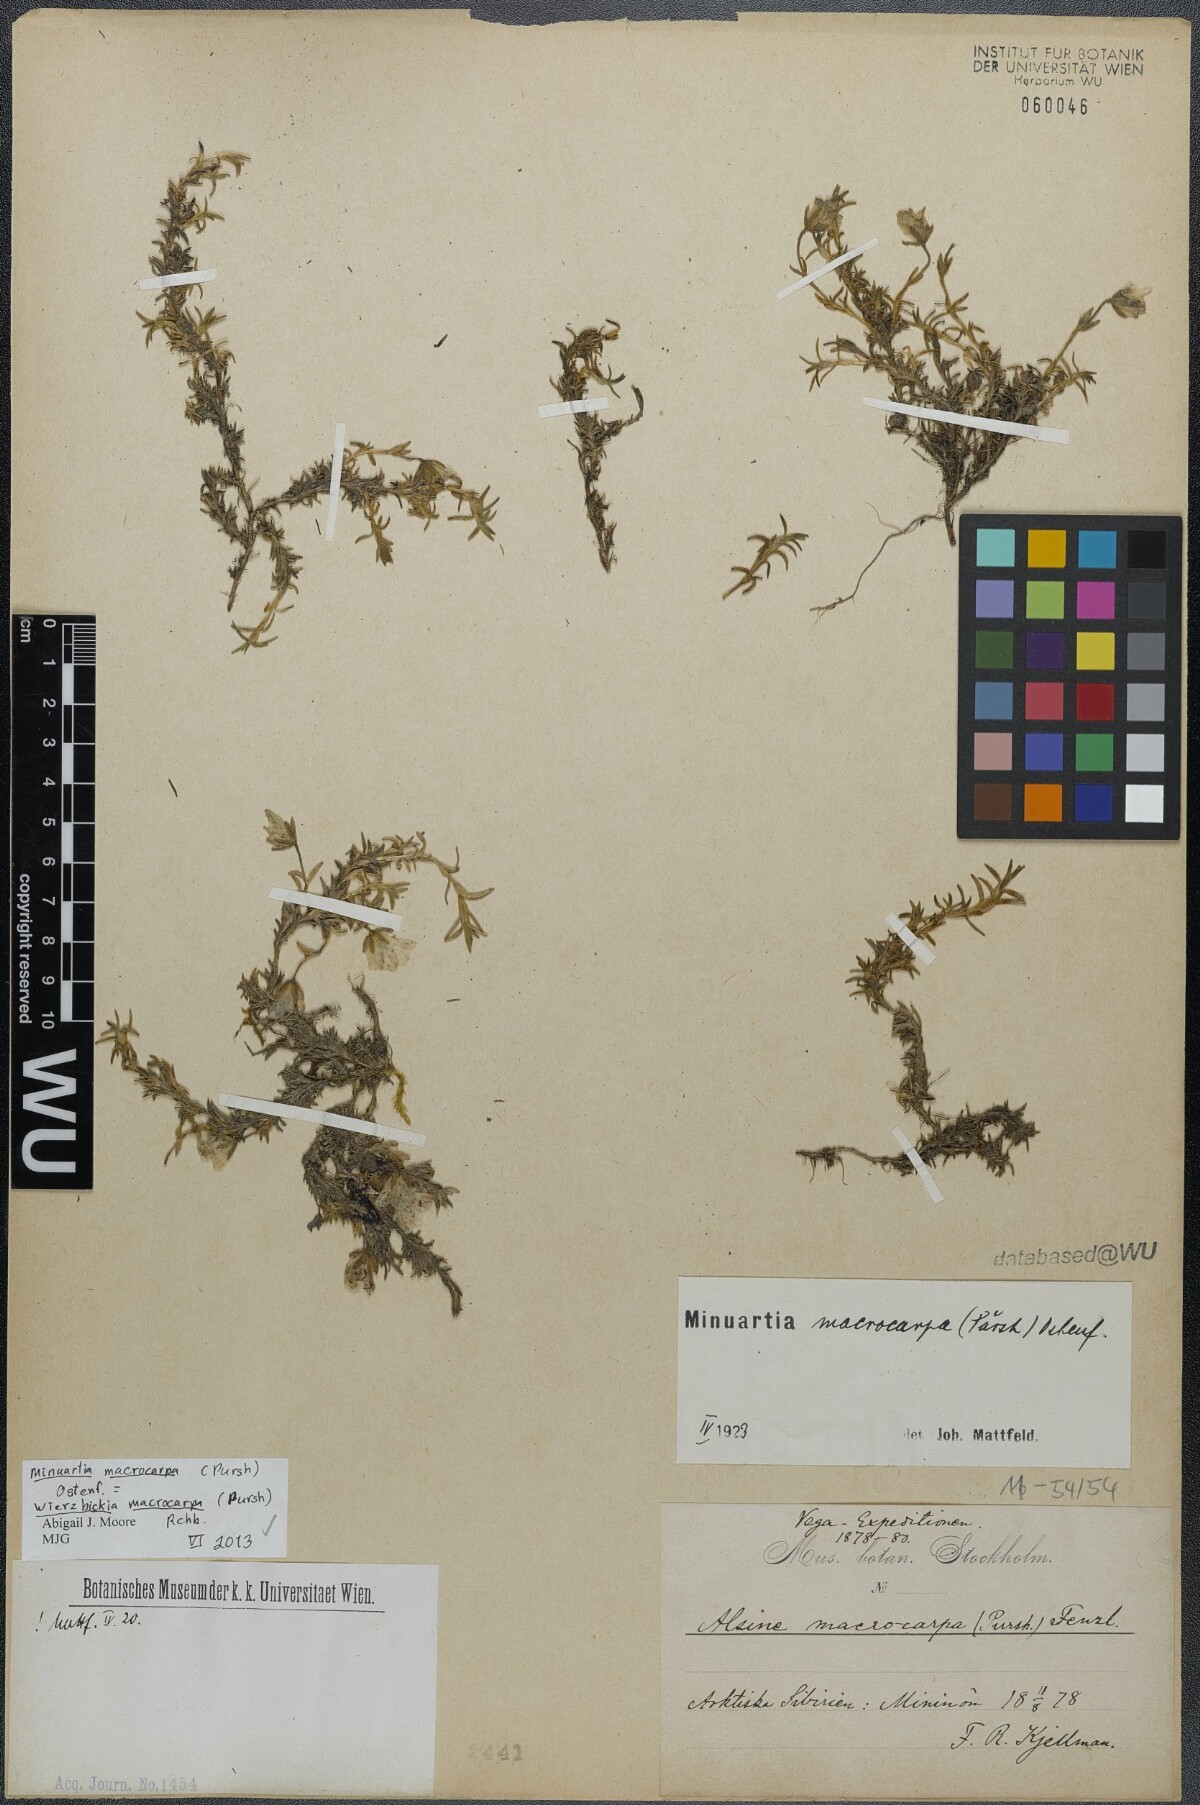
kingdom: Plantae
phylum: Tracheophyta
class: Magnoliopsida
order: Caryophyllales
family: Caryophyllaceae
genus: Pseudocherleria
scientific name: Pseudocherleria macrocarpa
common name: Large-fruit sandwort
